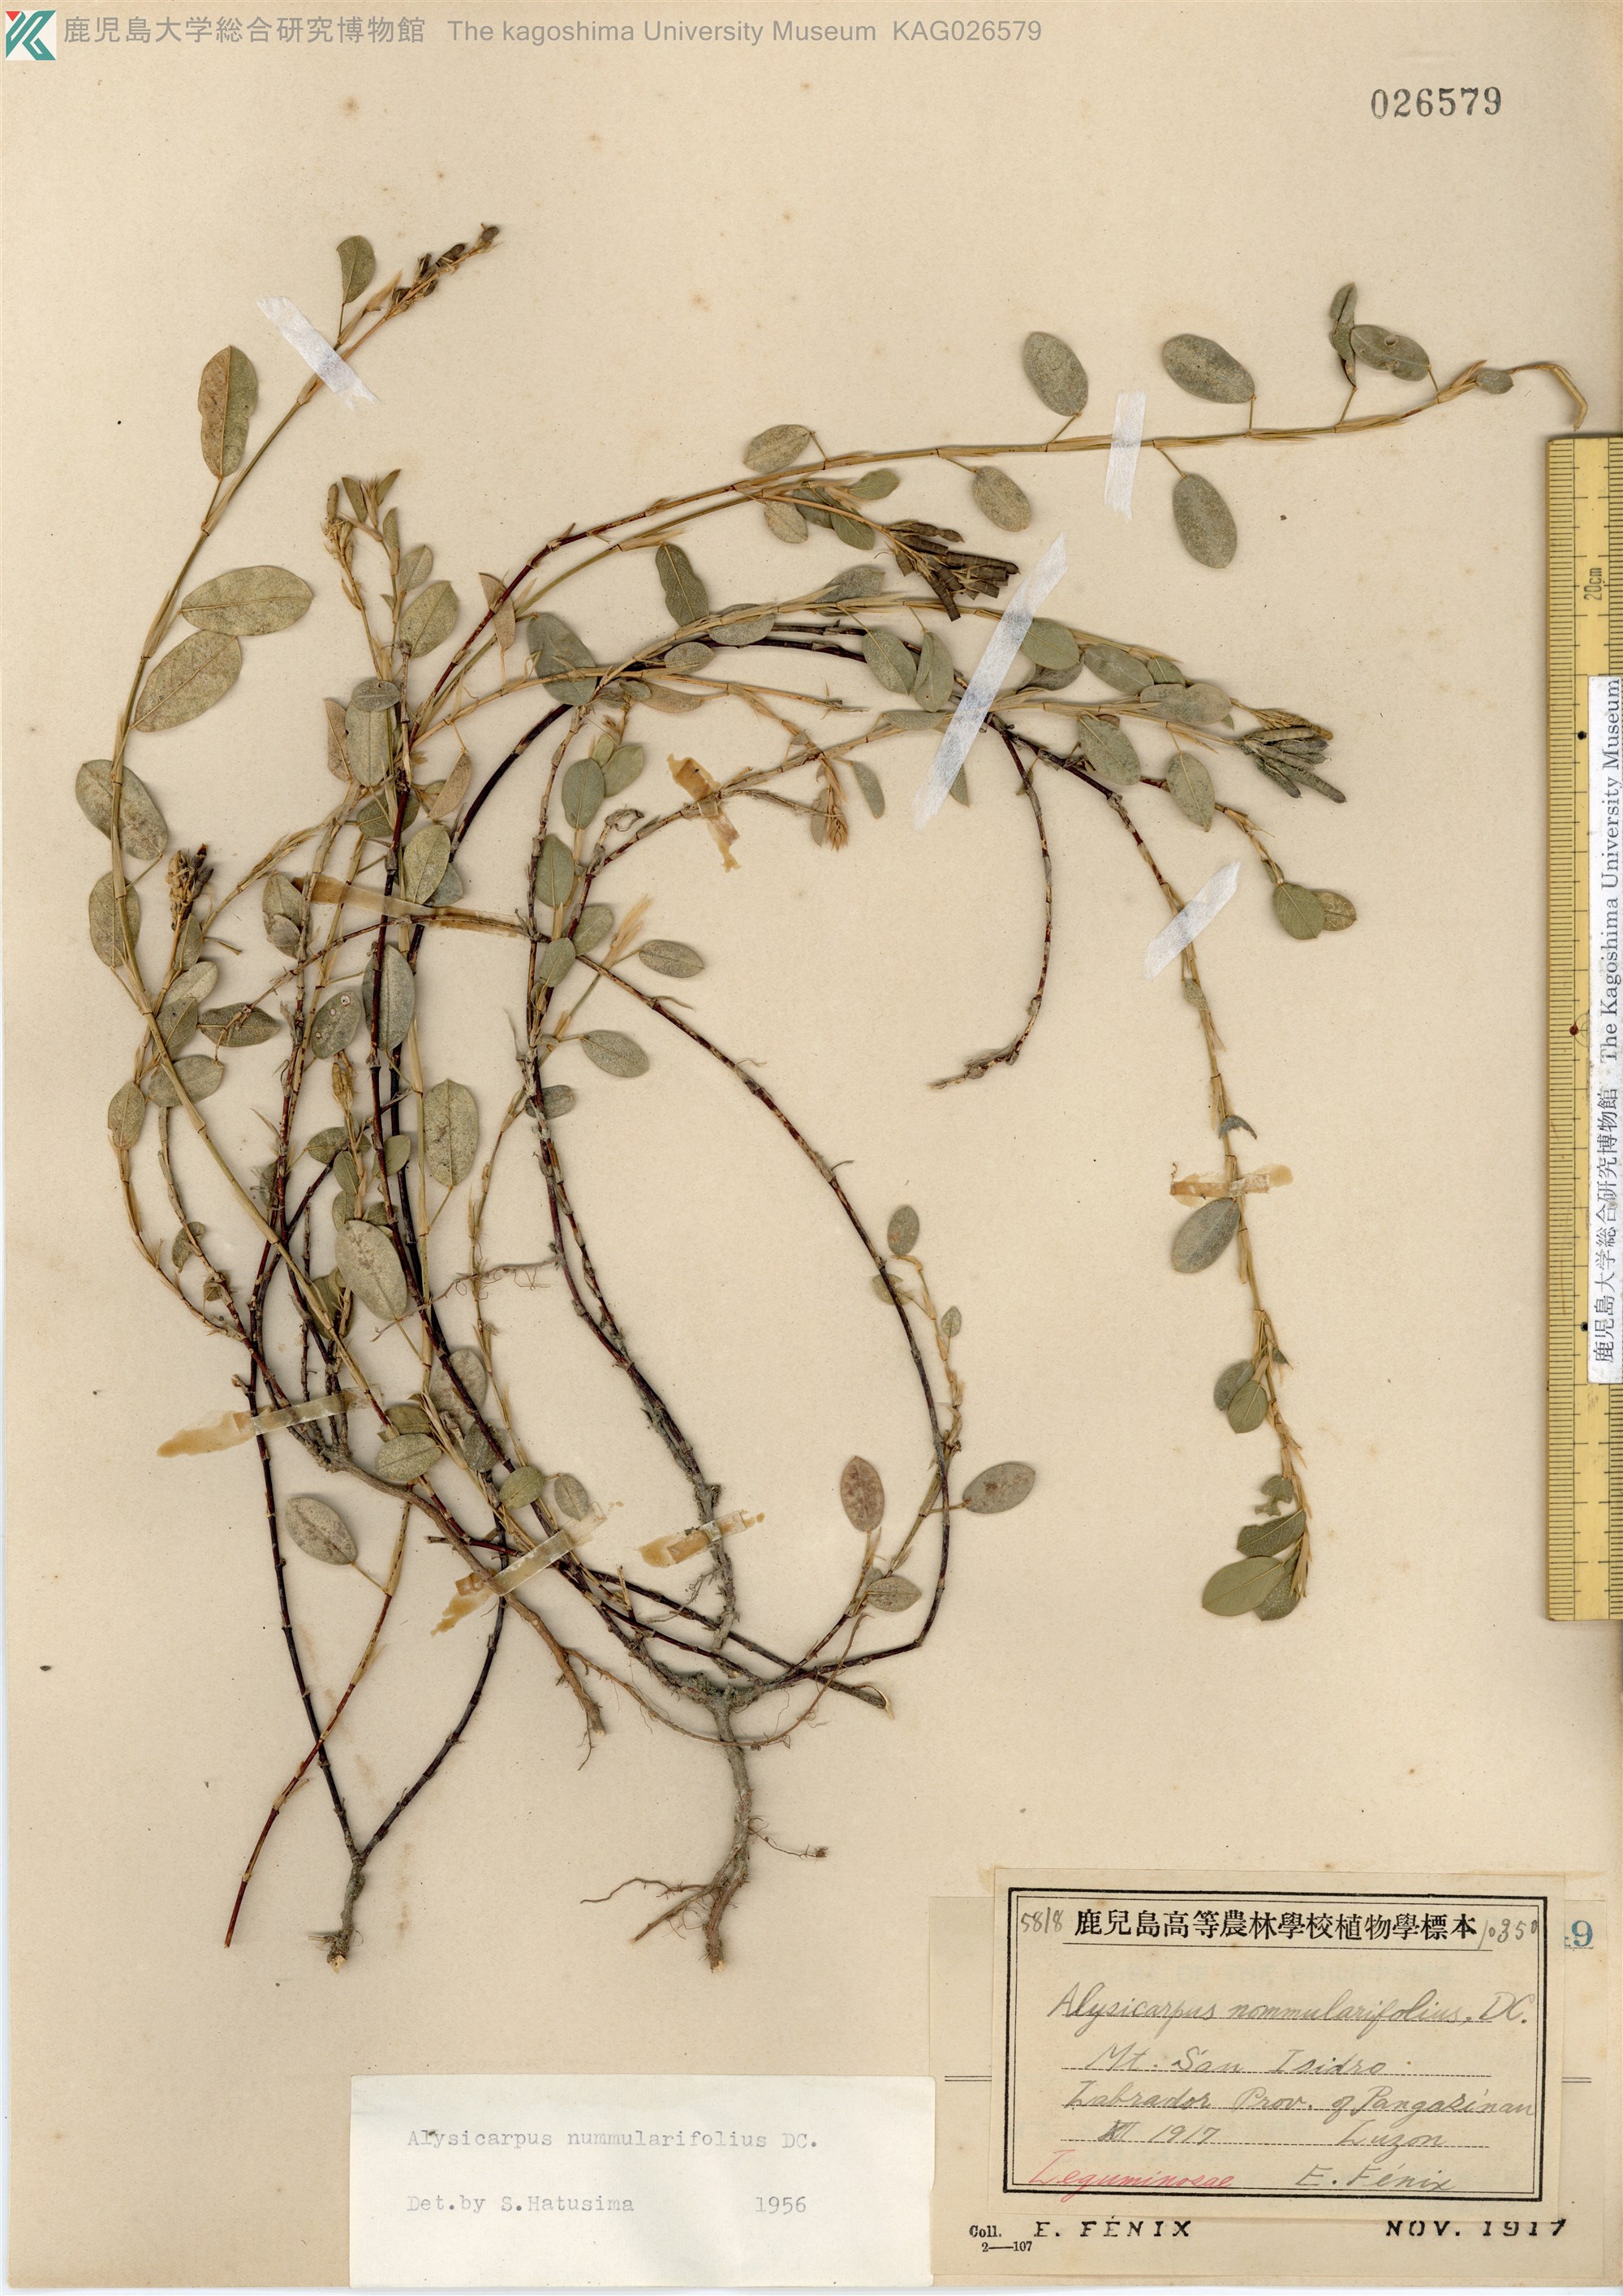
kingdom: Plantae
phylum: Tracheophyta
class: Magnoliopsida
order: Fabales
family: Fabaceae
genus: Alysicarpus
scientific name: Alysicarpus vaginalis
